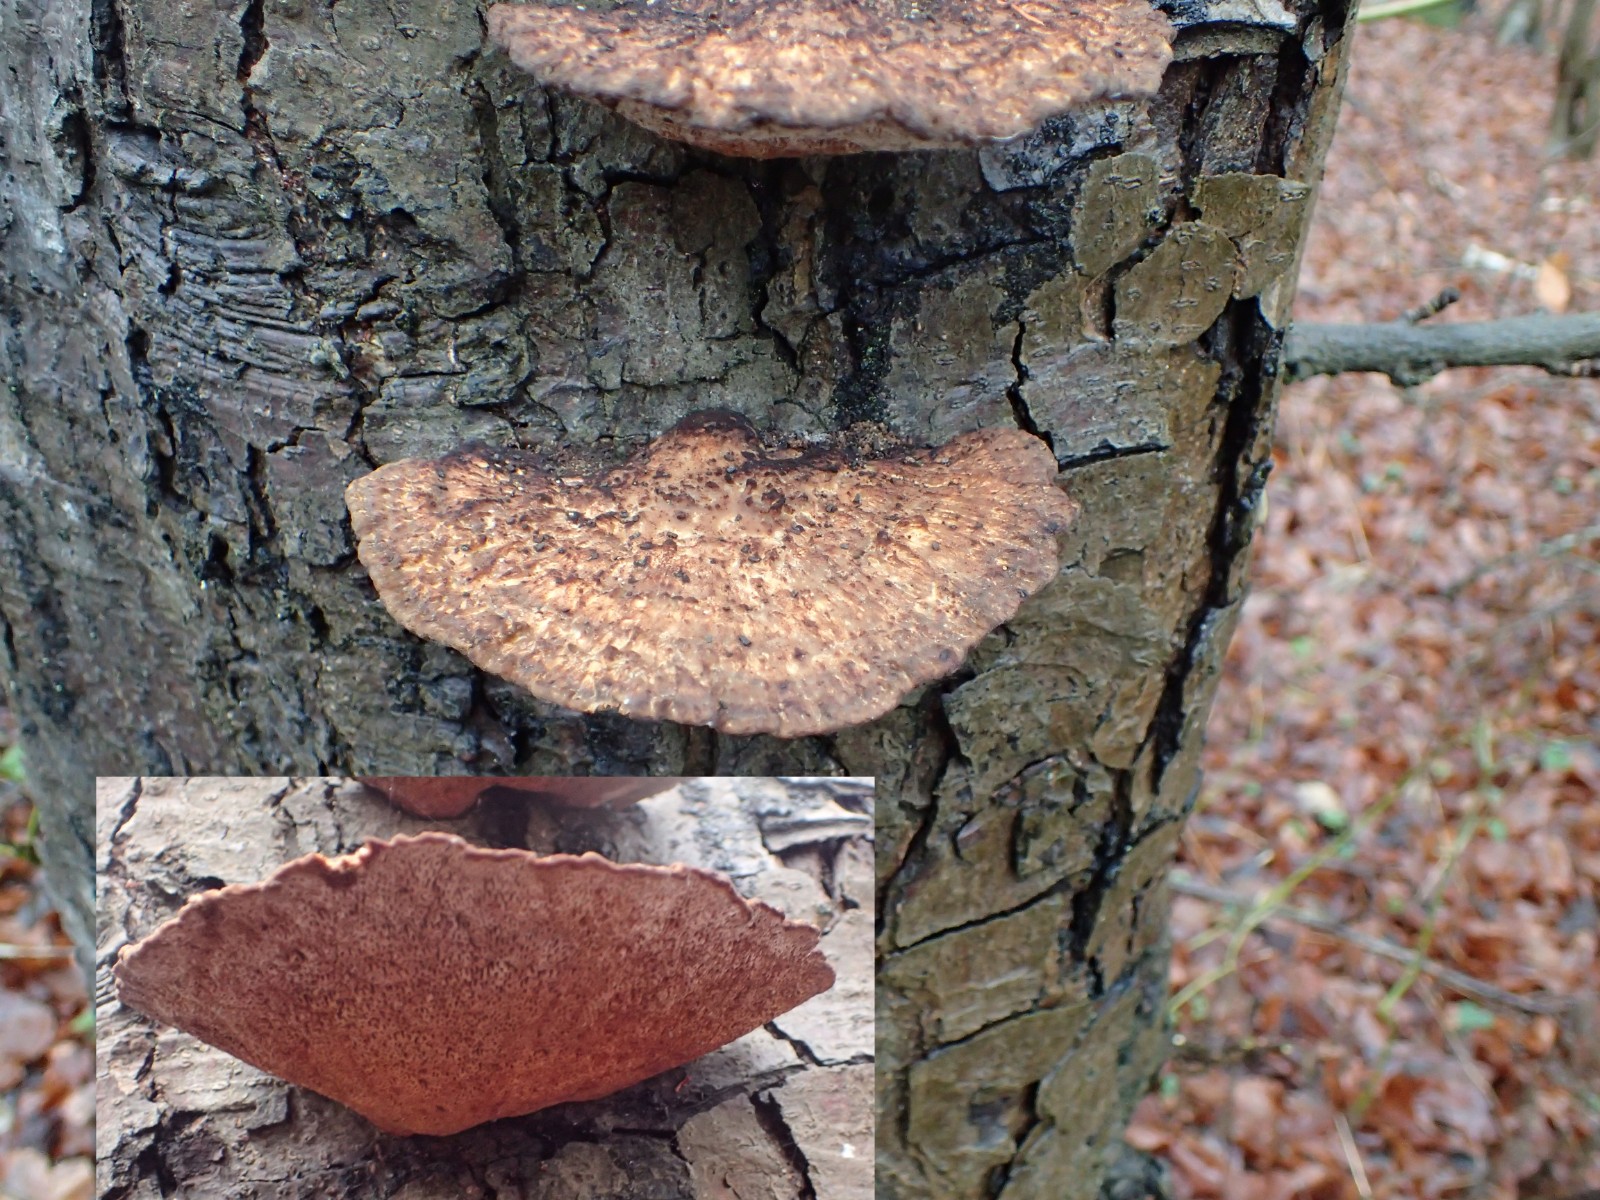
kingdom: Fungi
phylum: Basidiomycota
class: Agaricomycetes
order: Polyporales
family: Polyporaceae
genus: Daedaleopsis
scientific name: Daedaleopsis confragosa
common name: rødmende læderporesvamp
